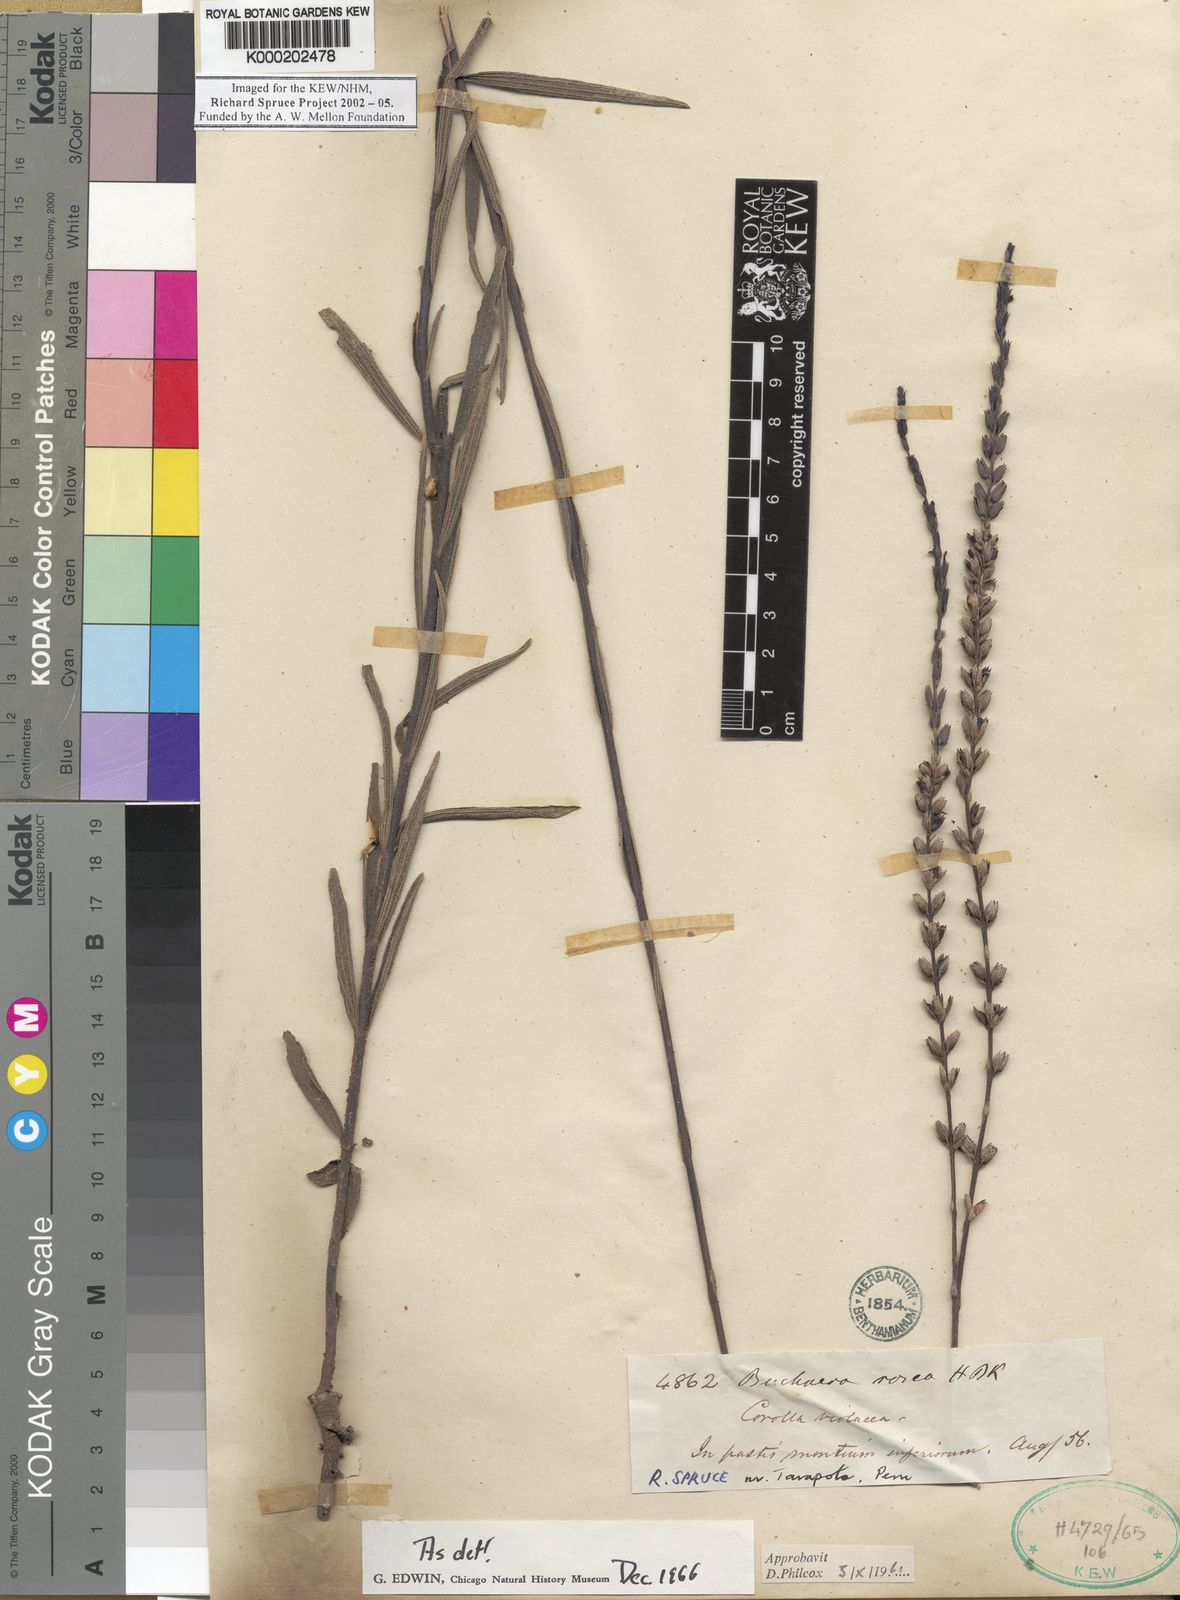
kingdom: Plantae
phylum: Tracheophyta
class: Magnoliopsida
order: Lamiales
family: Orobanchaceae
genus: Buchnera
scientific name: Buchnera rosea
